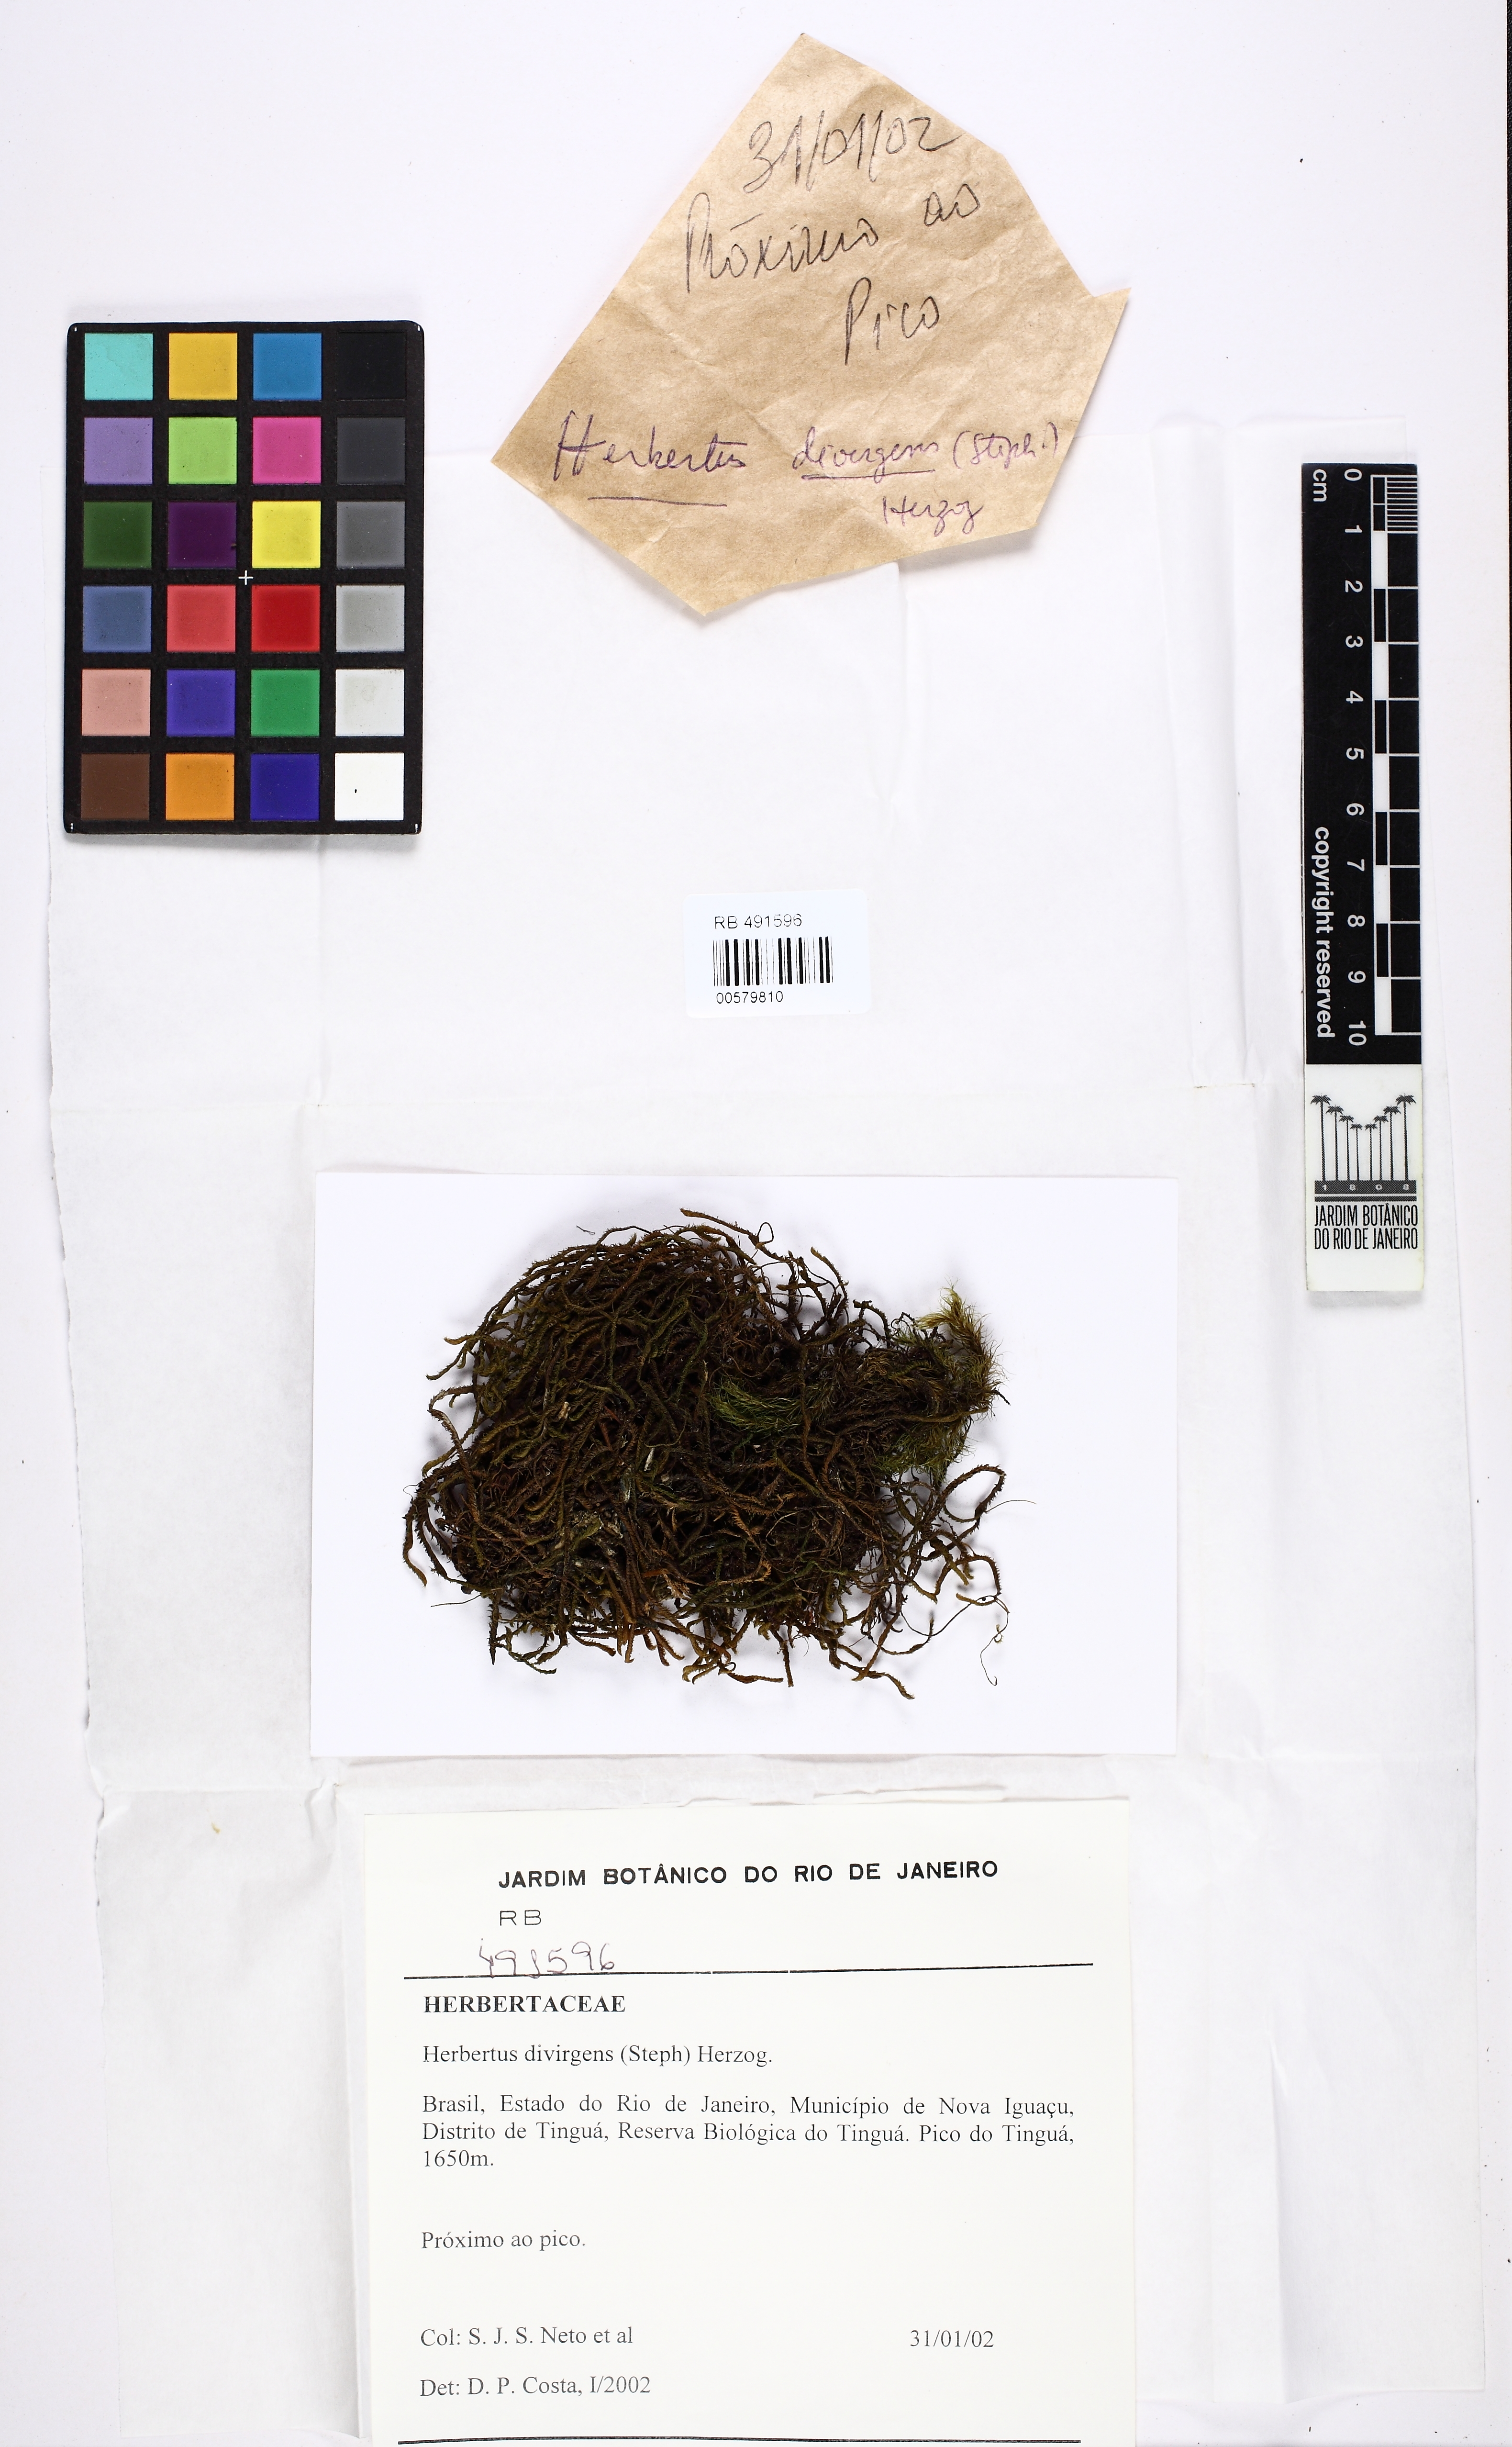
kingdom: Plantae
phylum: Marchantiophyta
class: Jungermanniopsida
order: Jungermanniales
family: Herbertaceae
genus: Herbertus
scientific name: Herbertus bivittatus
